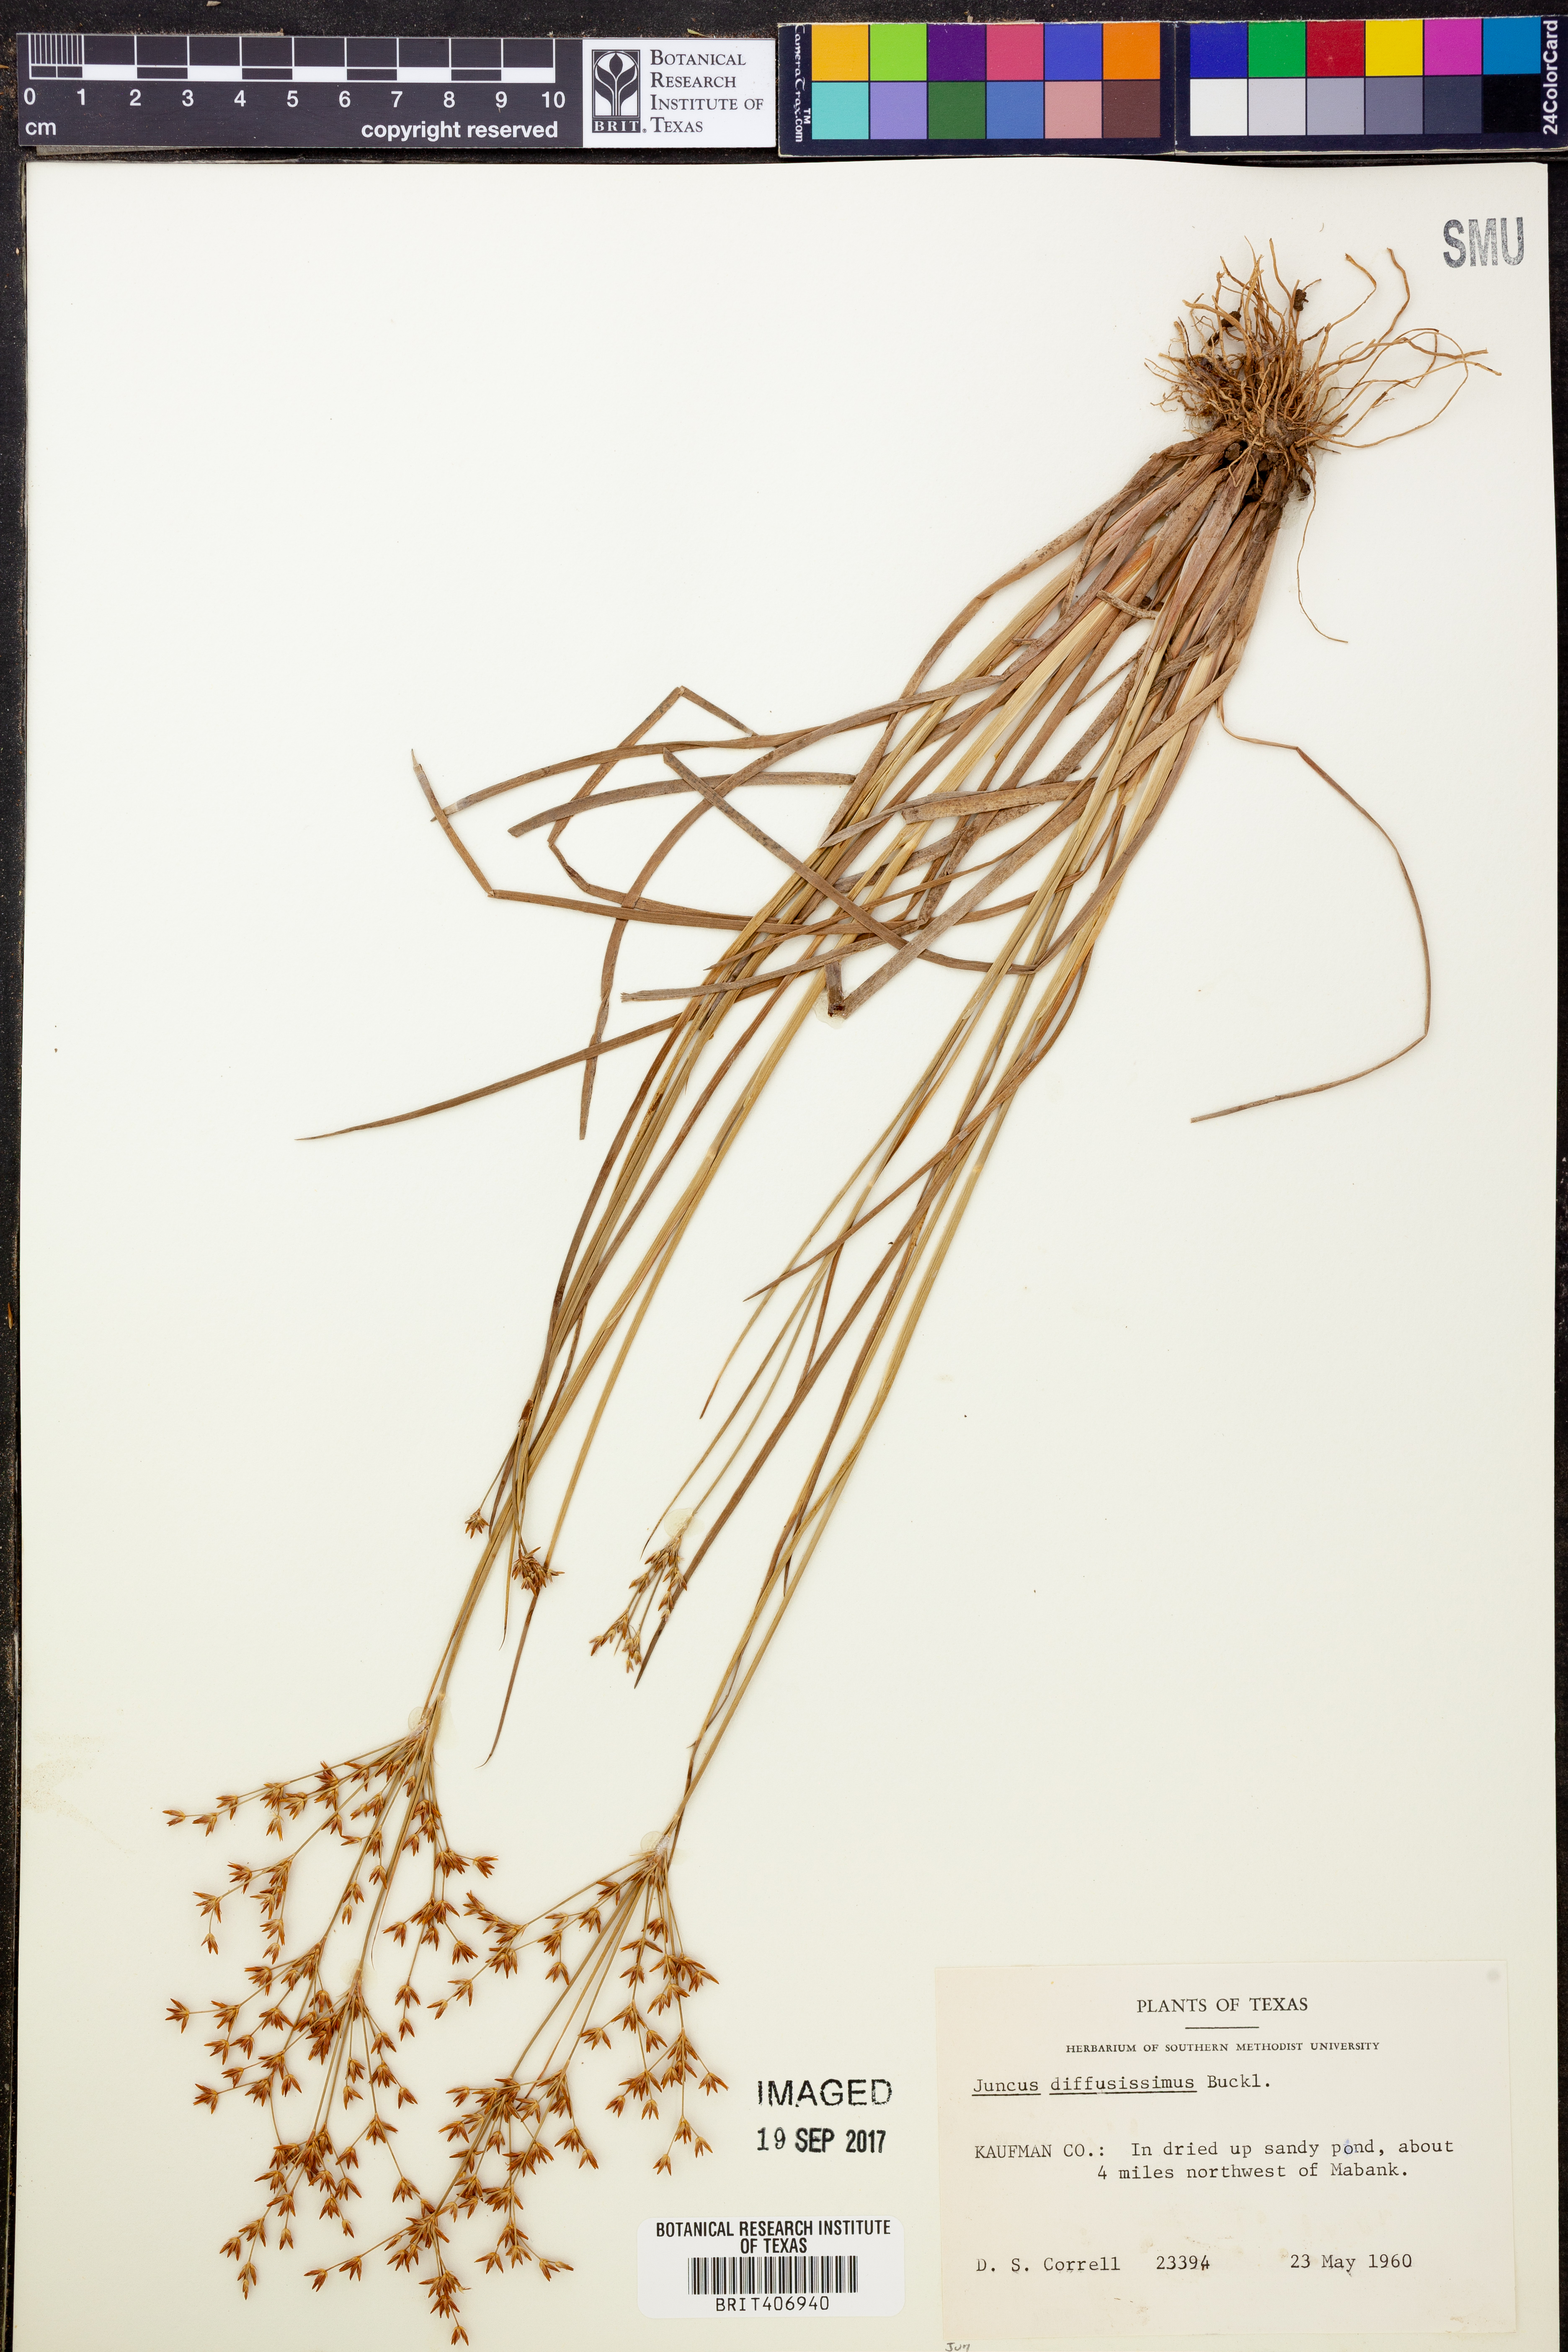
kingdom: Plantae
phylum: Tracheophyta
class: Liliopsida
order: Poales
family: Juncaceae
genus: Juncus
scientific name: Juncus diffusissimus
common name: Slimpod rush
